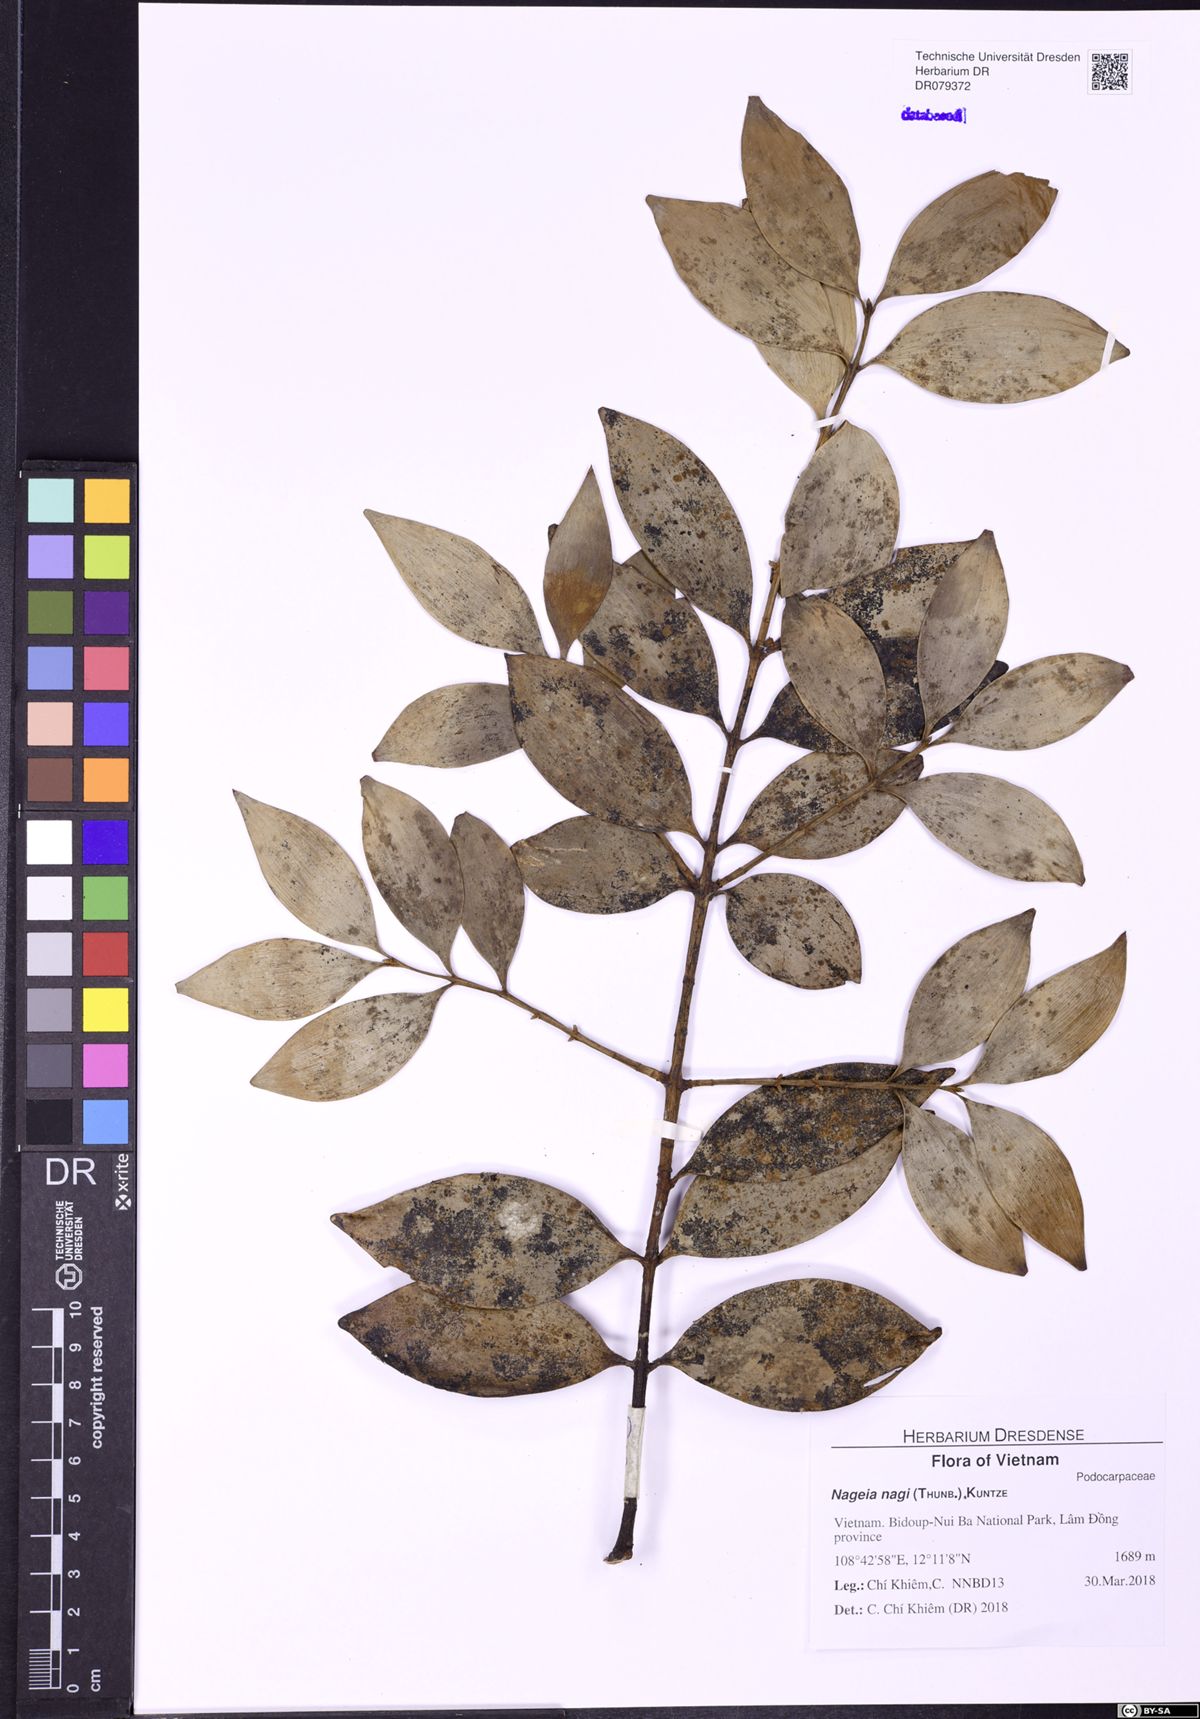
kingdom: Plantae
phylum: Tracheophyta
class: Pinopsida
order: Pinales
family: Podocarpaceae
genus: Nageia
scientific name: Nageia nagi
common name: Kaphal
